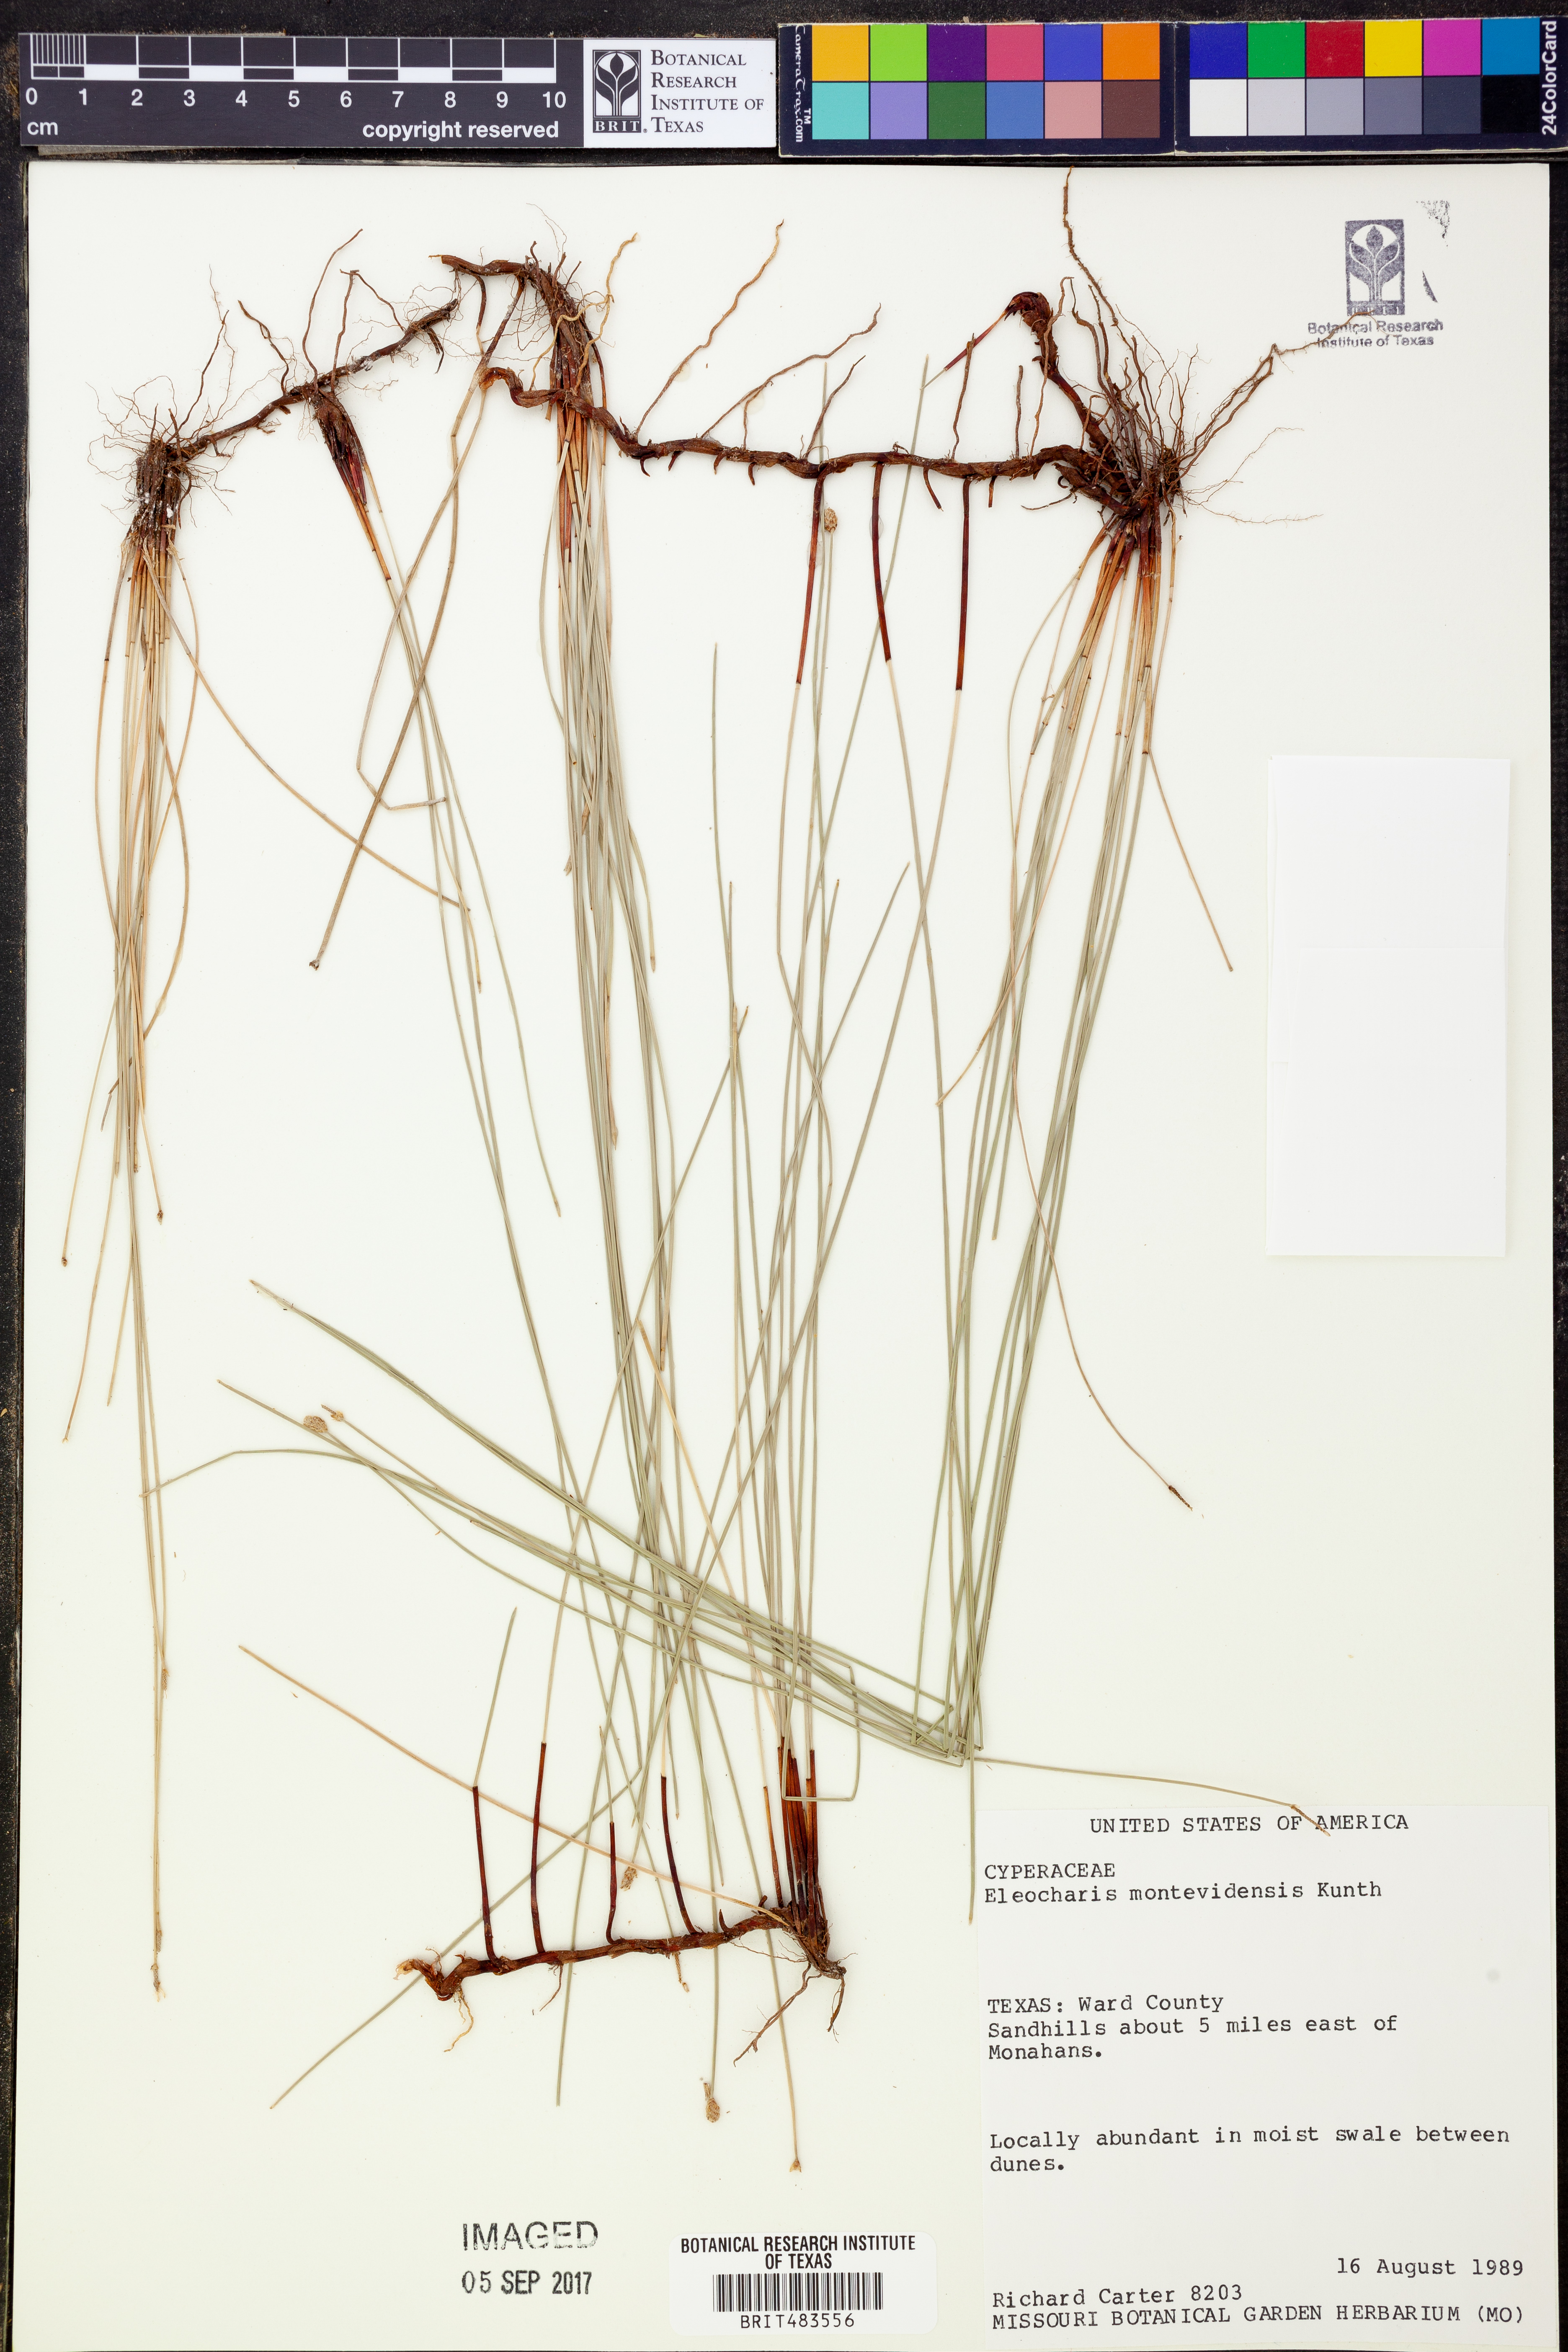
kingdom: Plantae
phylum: Tracheophyta
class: Liliopsida
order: Poales
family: Cyperaceae
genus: Eleocharis
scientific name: Eleocharis montevidensis
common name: Sand spike-rush
